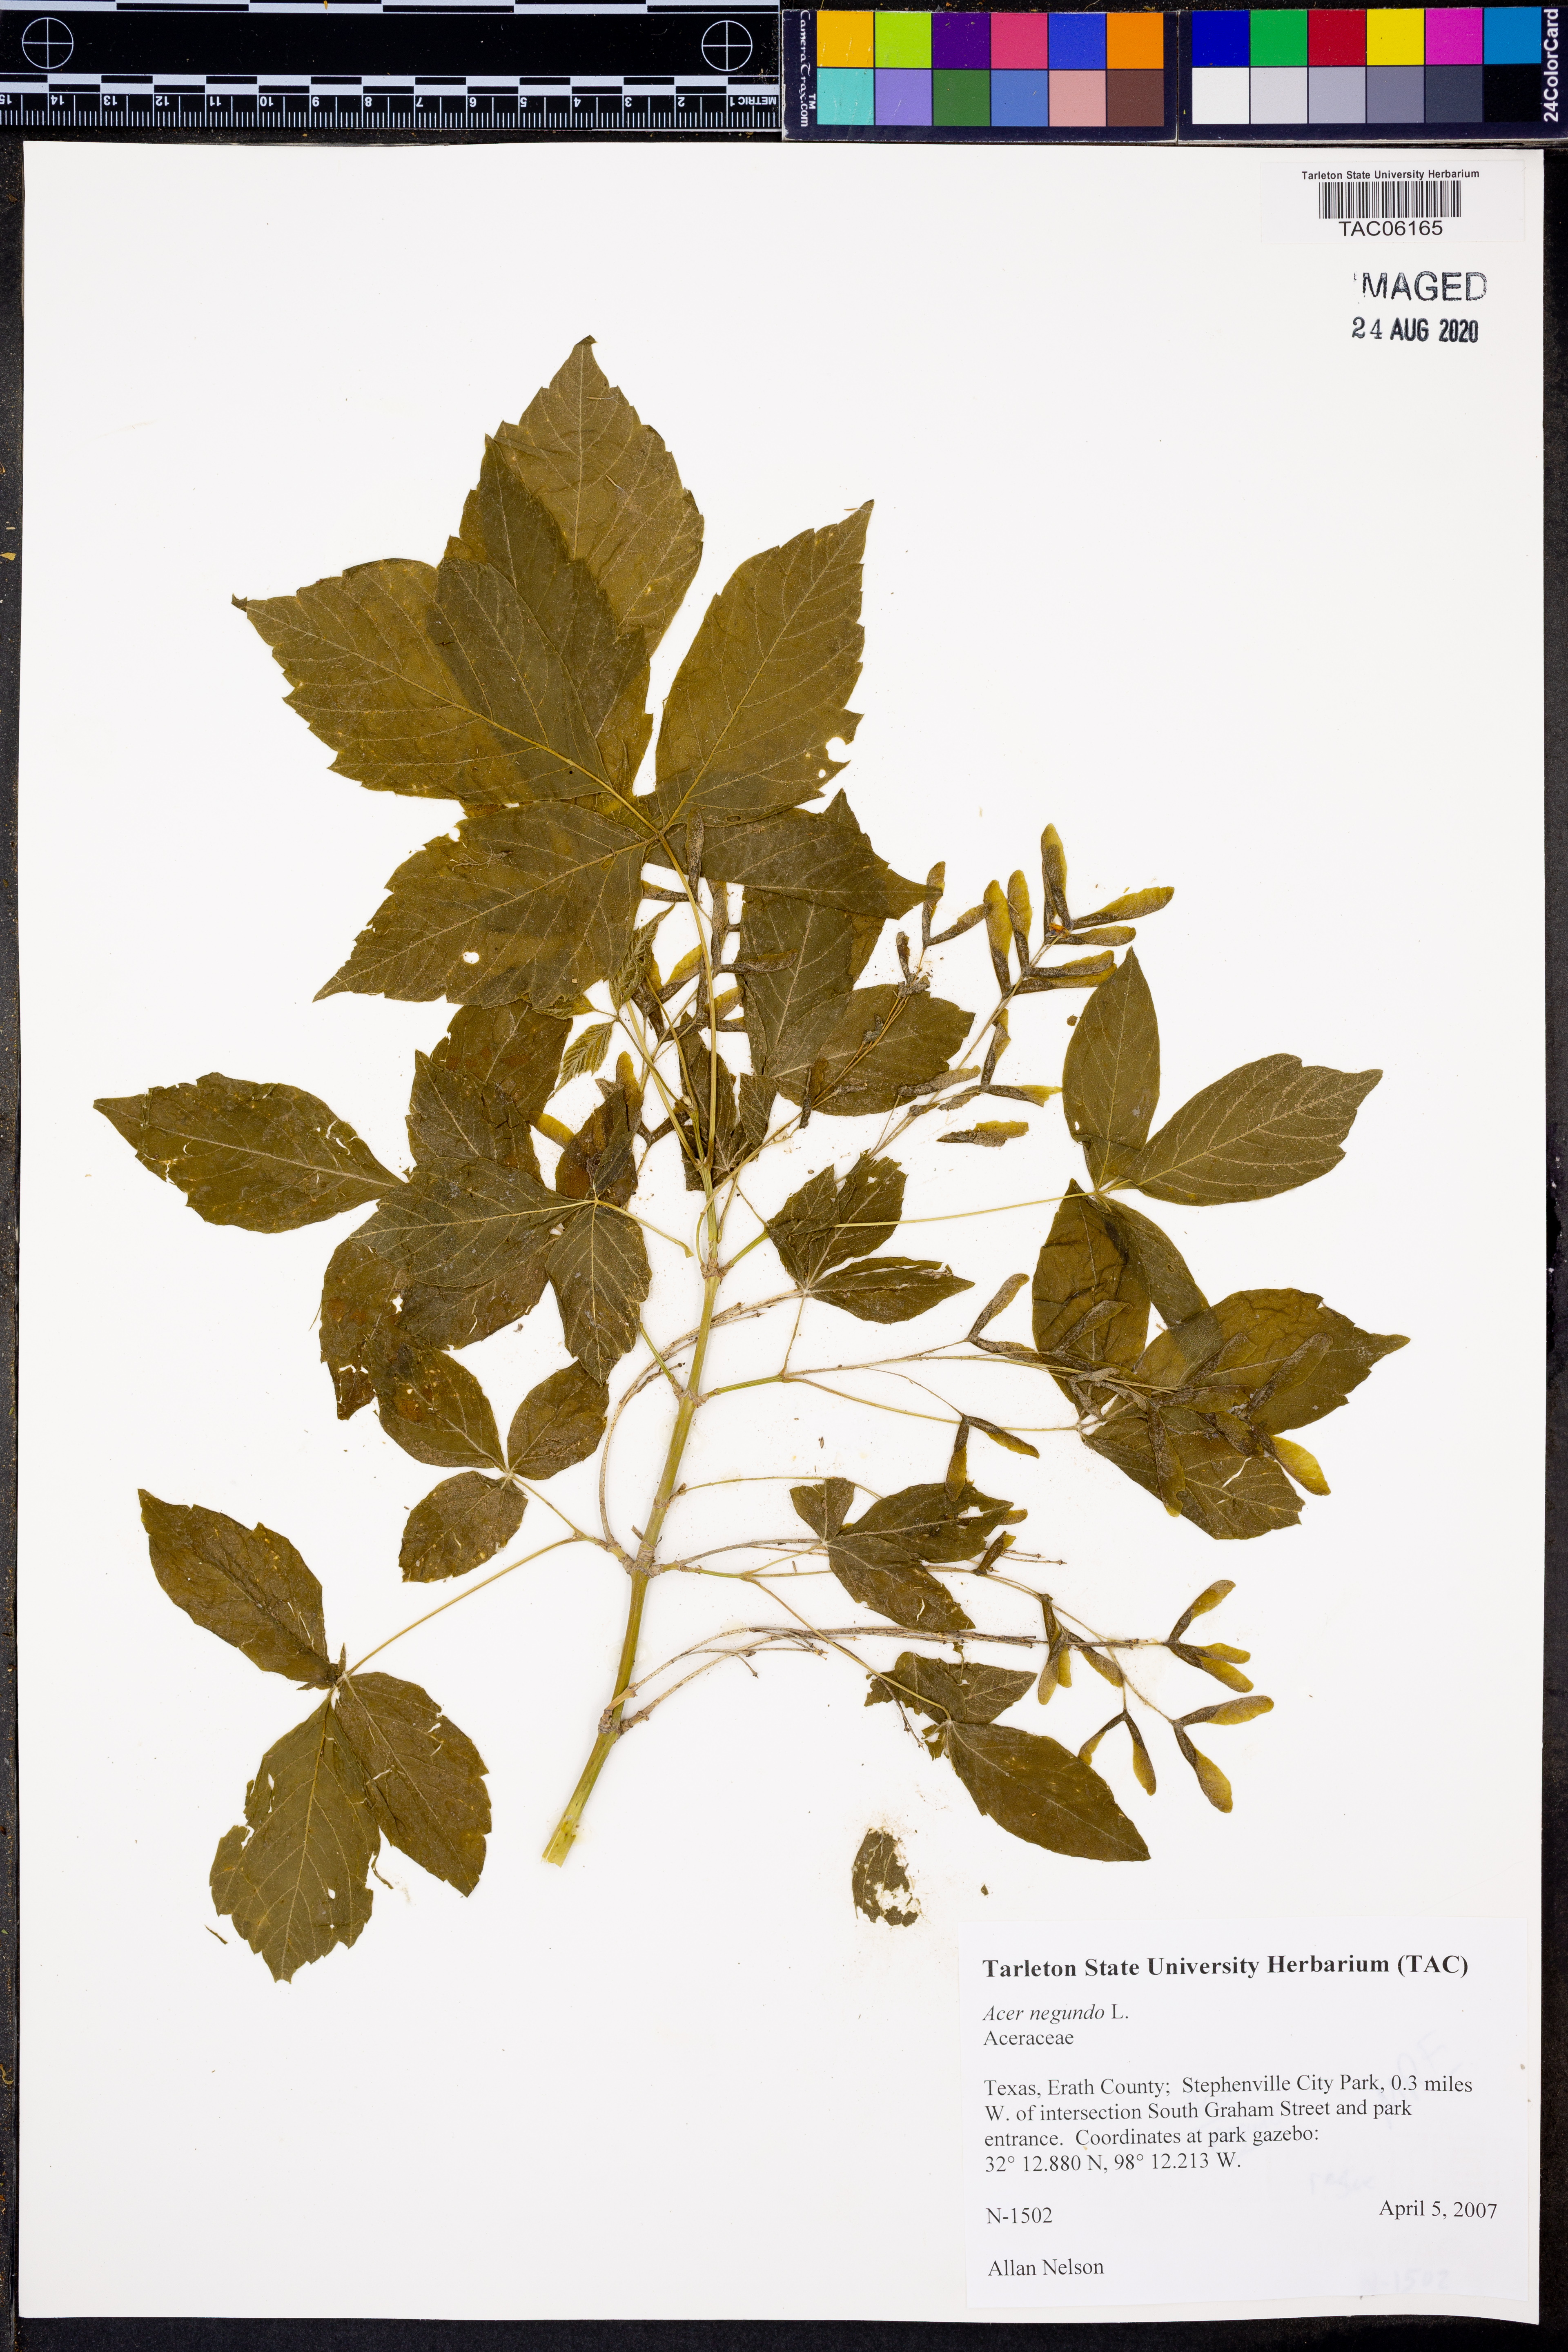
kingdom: Plantae
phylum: Tracheophyta
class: Magnoliopsida
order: Sapindales
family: Sapindaceae
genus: Acer
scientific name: Acer negundo
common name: Ashleaf maple
